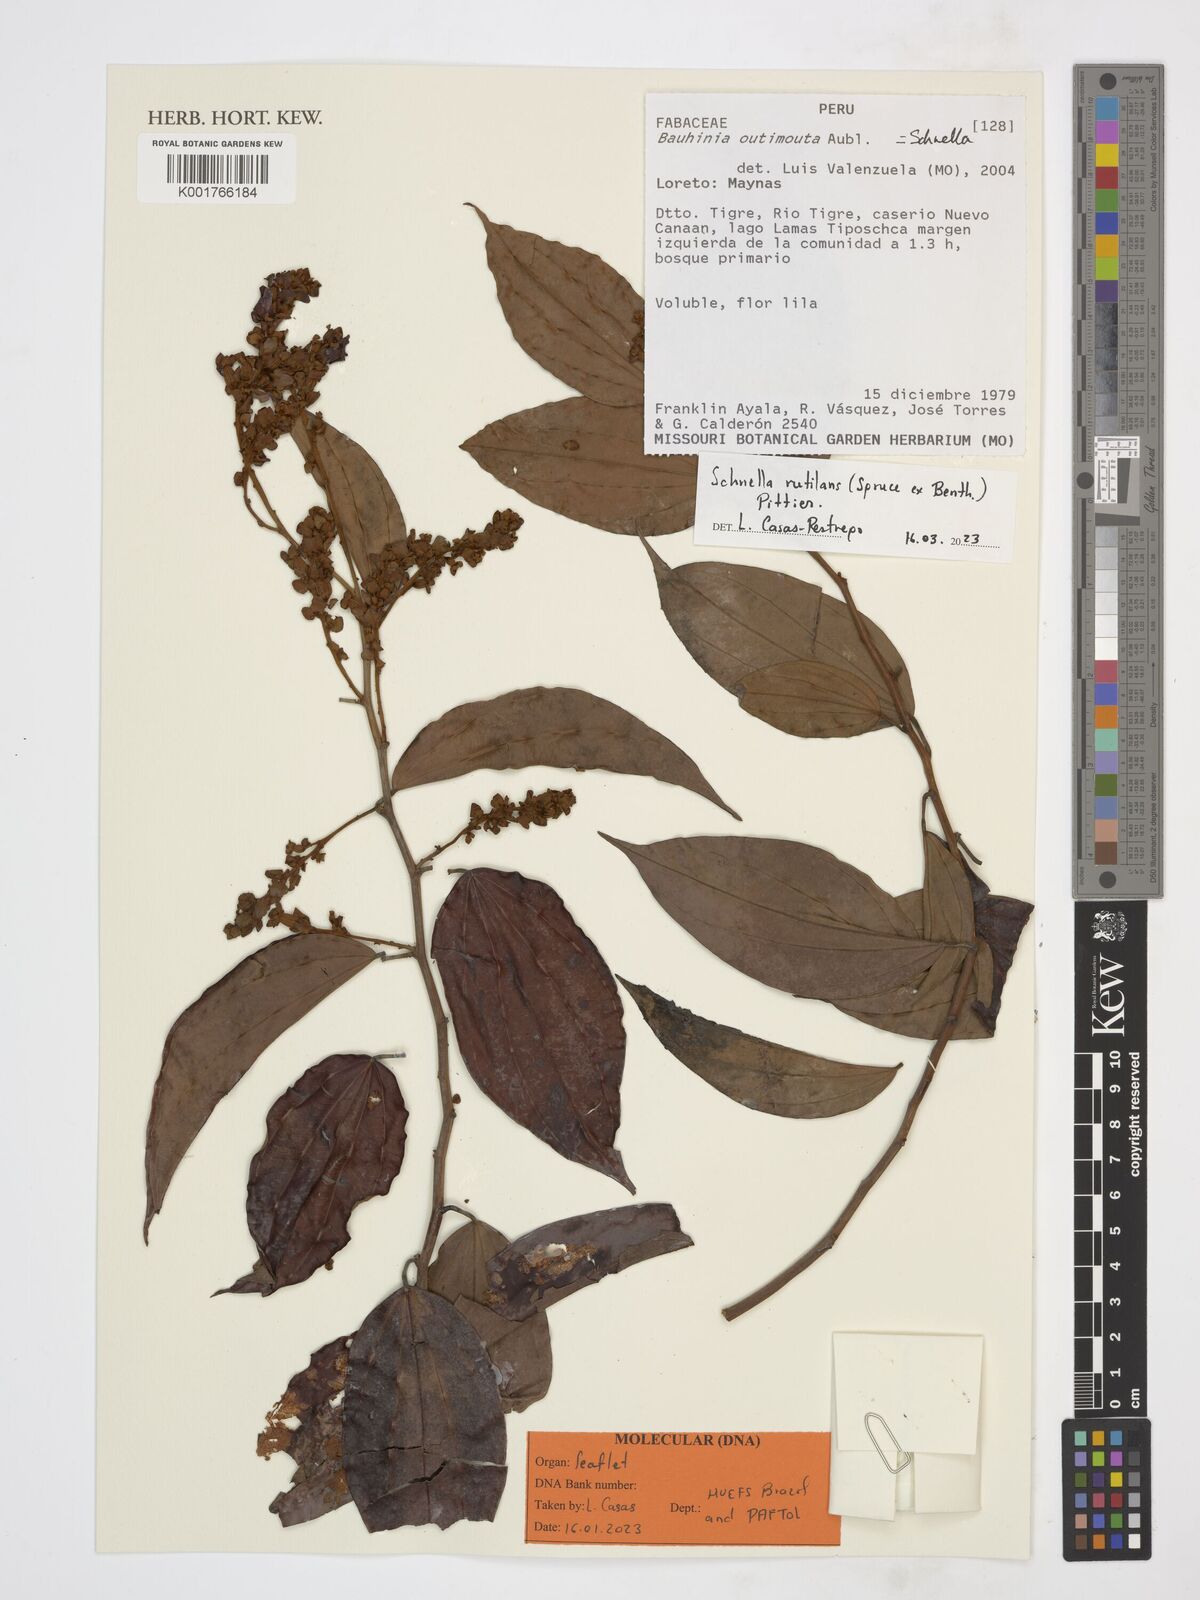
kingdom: Plantae
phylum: Tracheophyta
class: Magnoliopsida
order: Fabales
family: Fabaceae
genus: Schnella
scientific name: Schnella rutilans
